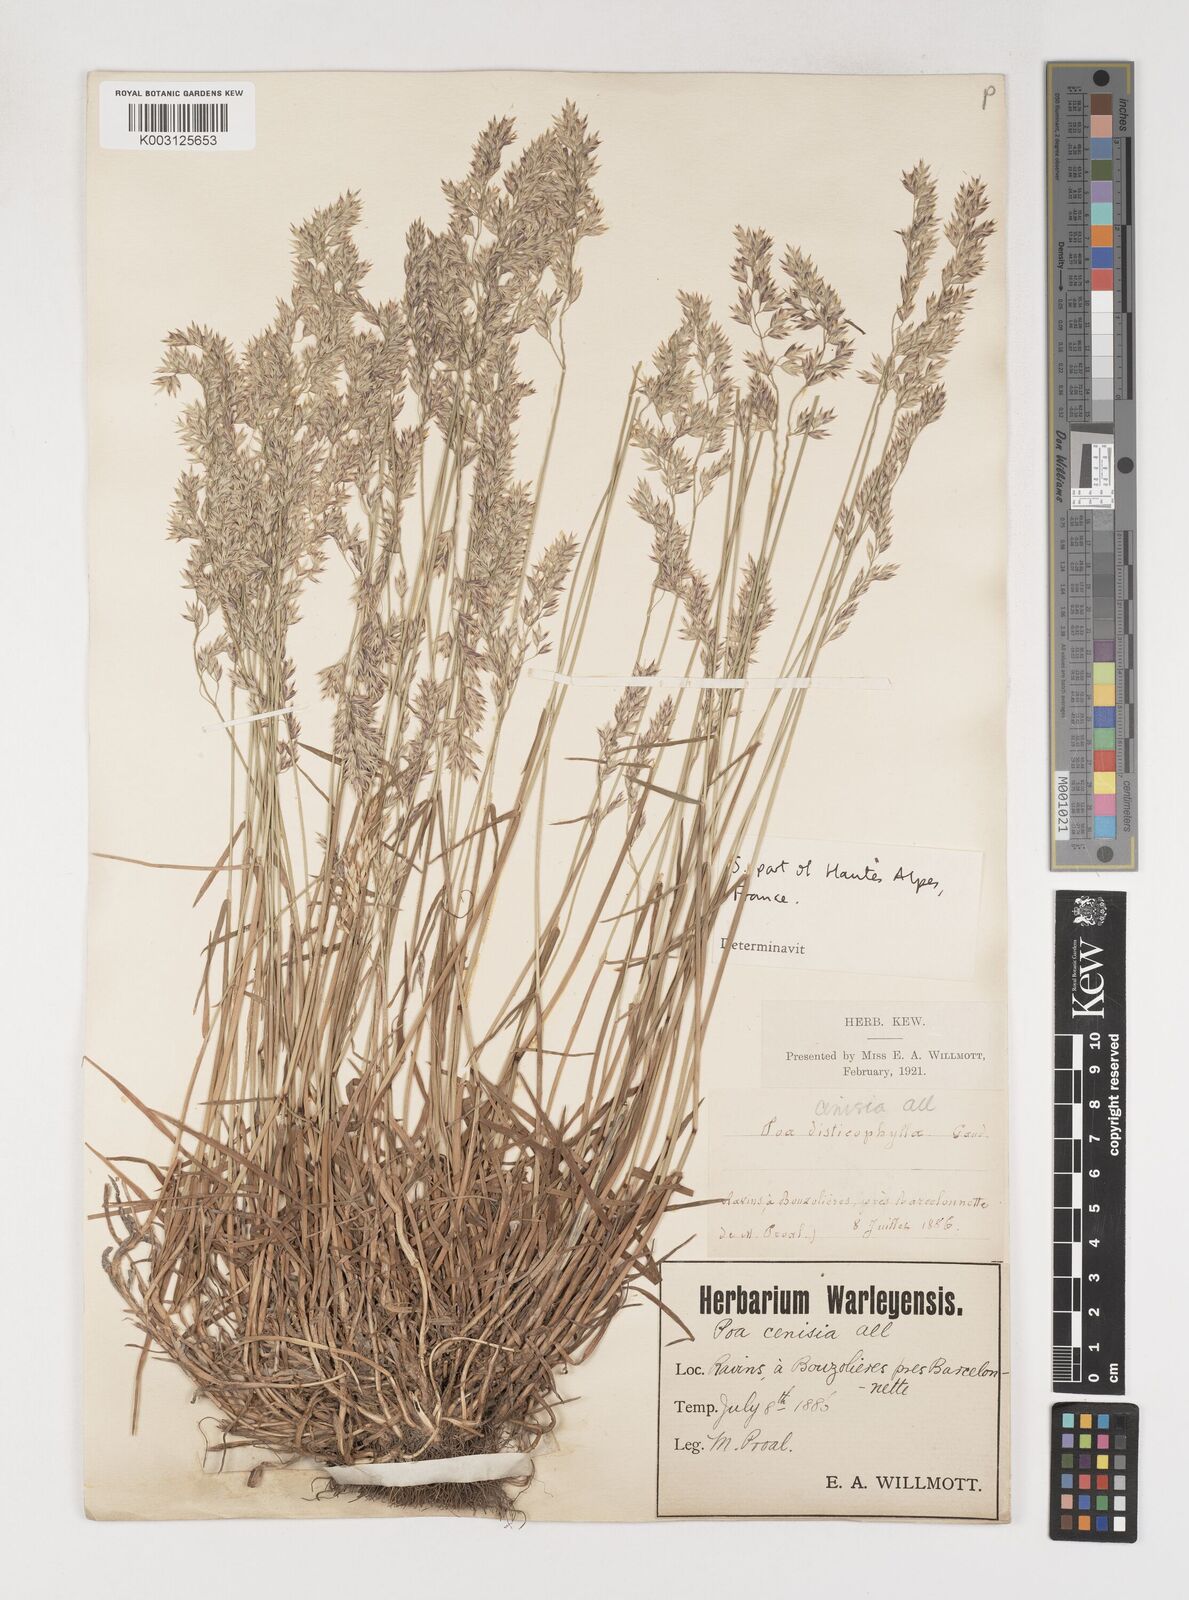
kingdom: Plantae
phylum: Tracheophyta
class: Liliopsida
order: Poales
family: Poaceae
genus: Poa
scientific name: Poa
